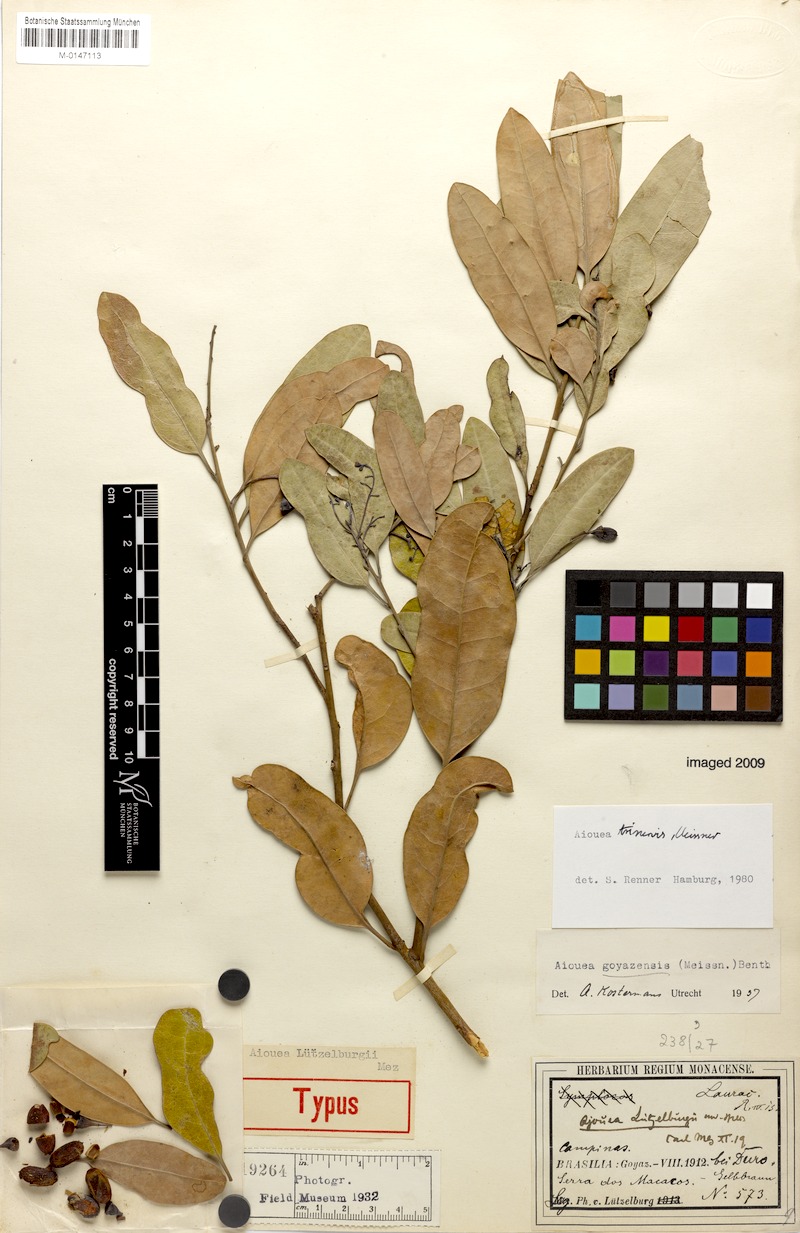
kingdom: Plantae
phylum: Tracheophyta
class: Magnoliopsida
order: Laurales
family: Lauraceae
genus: Aiouea
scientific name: Aiouea trinervis
